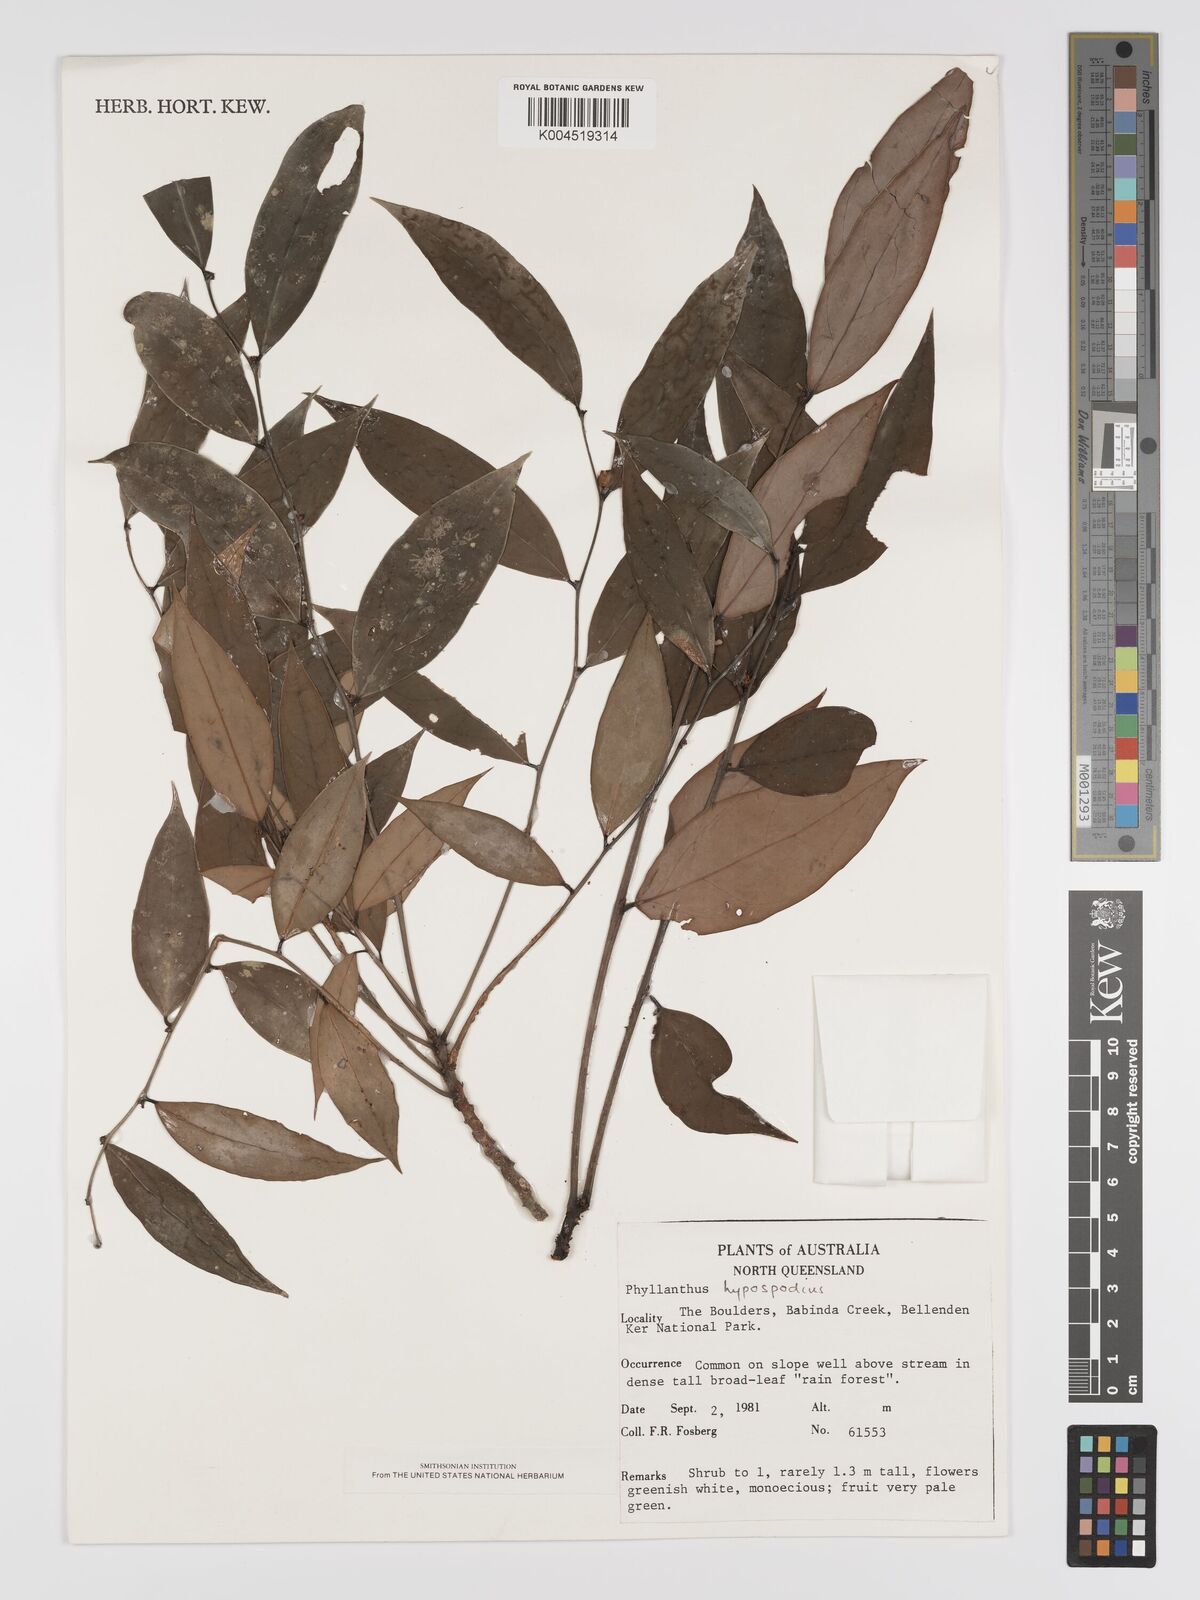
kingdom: Plantae
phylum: Tracheophyta
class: Magnoliopsida
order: Malpighiales
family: Phyllanthaceae
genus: Phyllanthus
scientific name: Phyllanthus hypospodius
